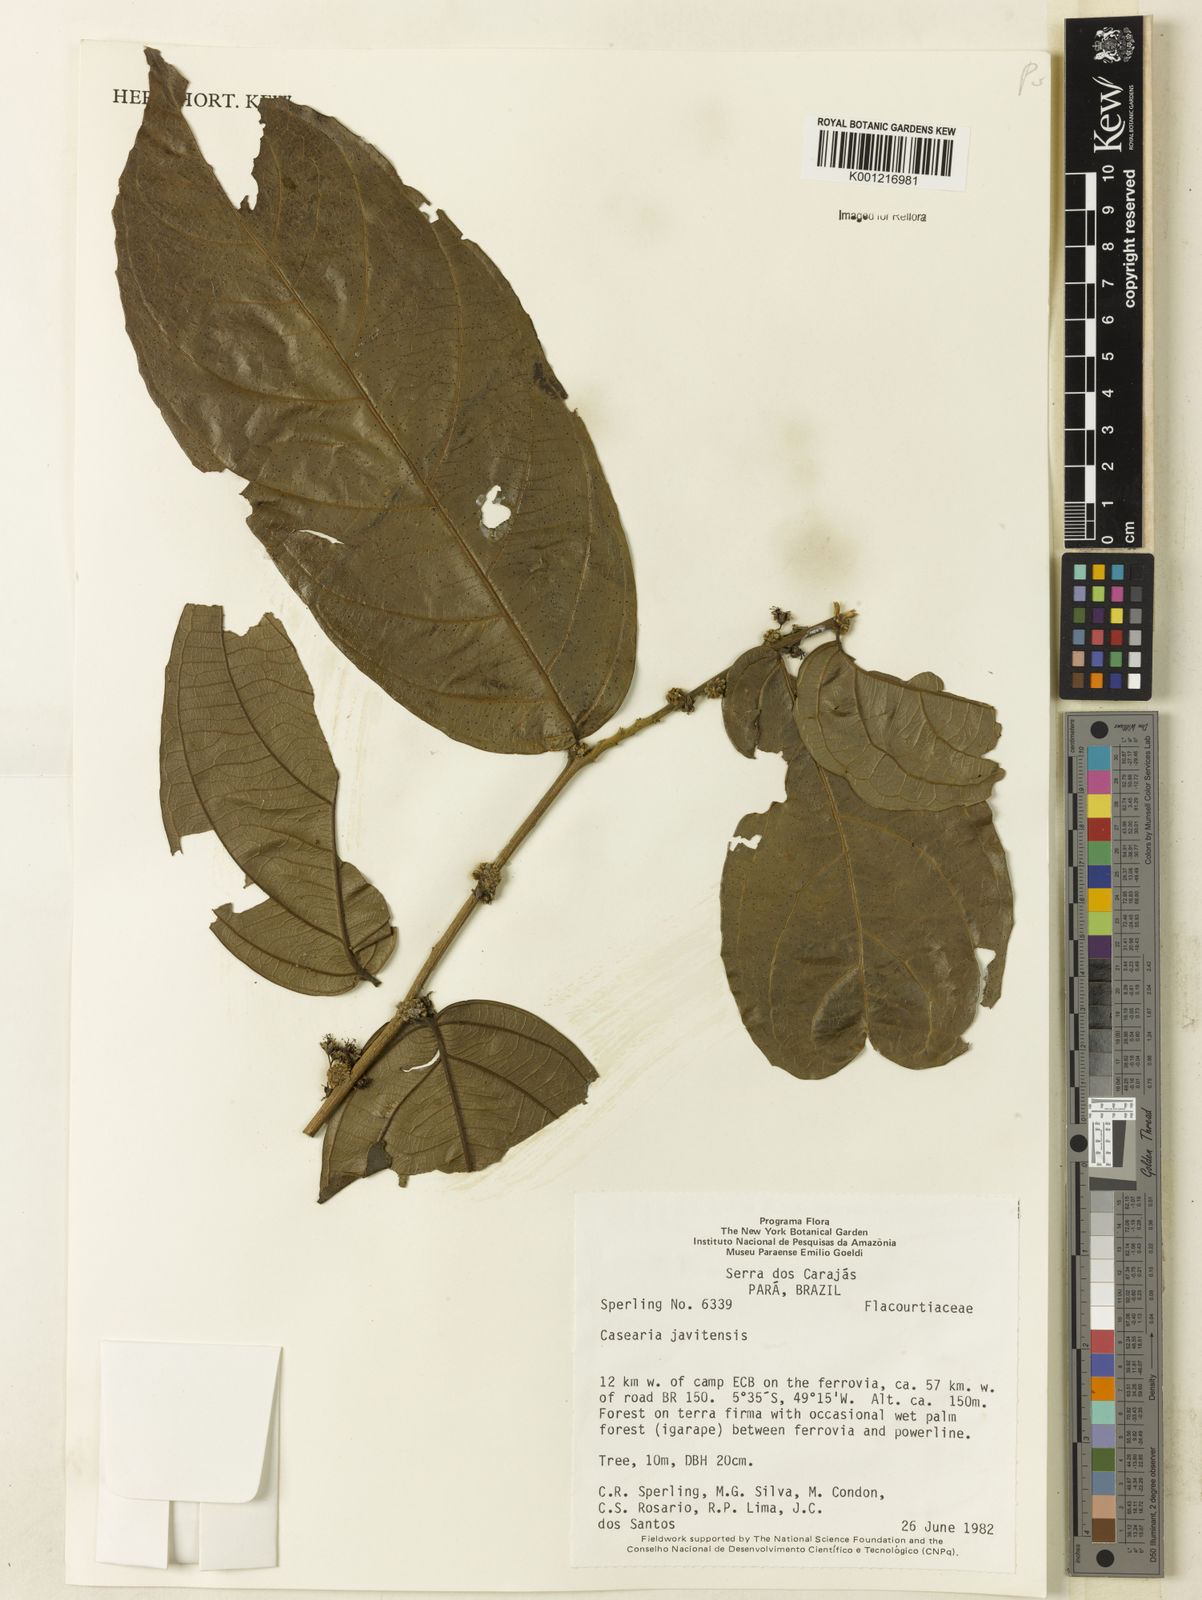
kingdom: Plantae
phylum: Tracheophyta
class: Magnoliopsida
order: Malpighiales
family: Salicaceae
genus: Piparea
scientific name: Piparea multiflora
